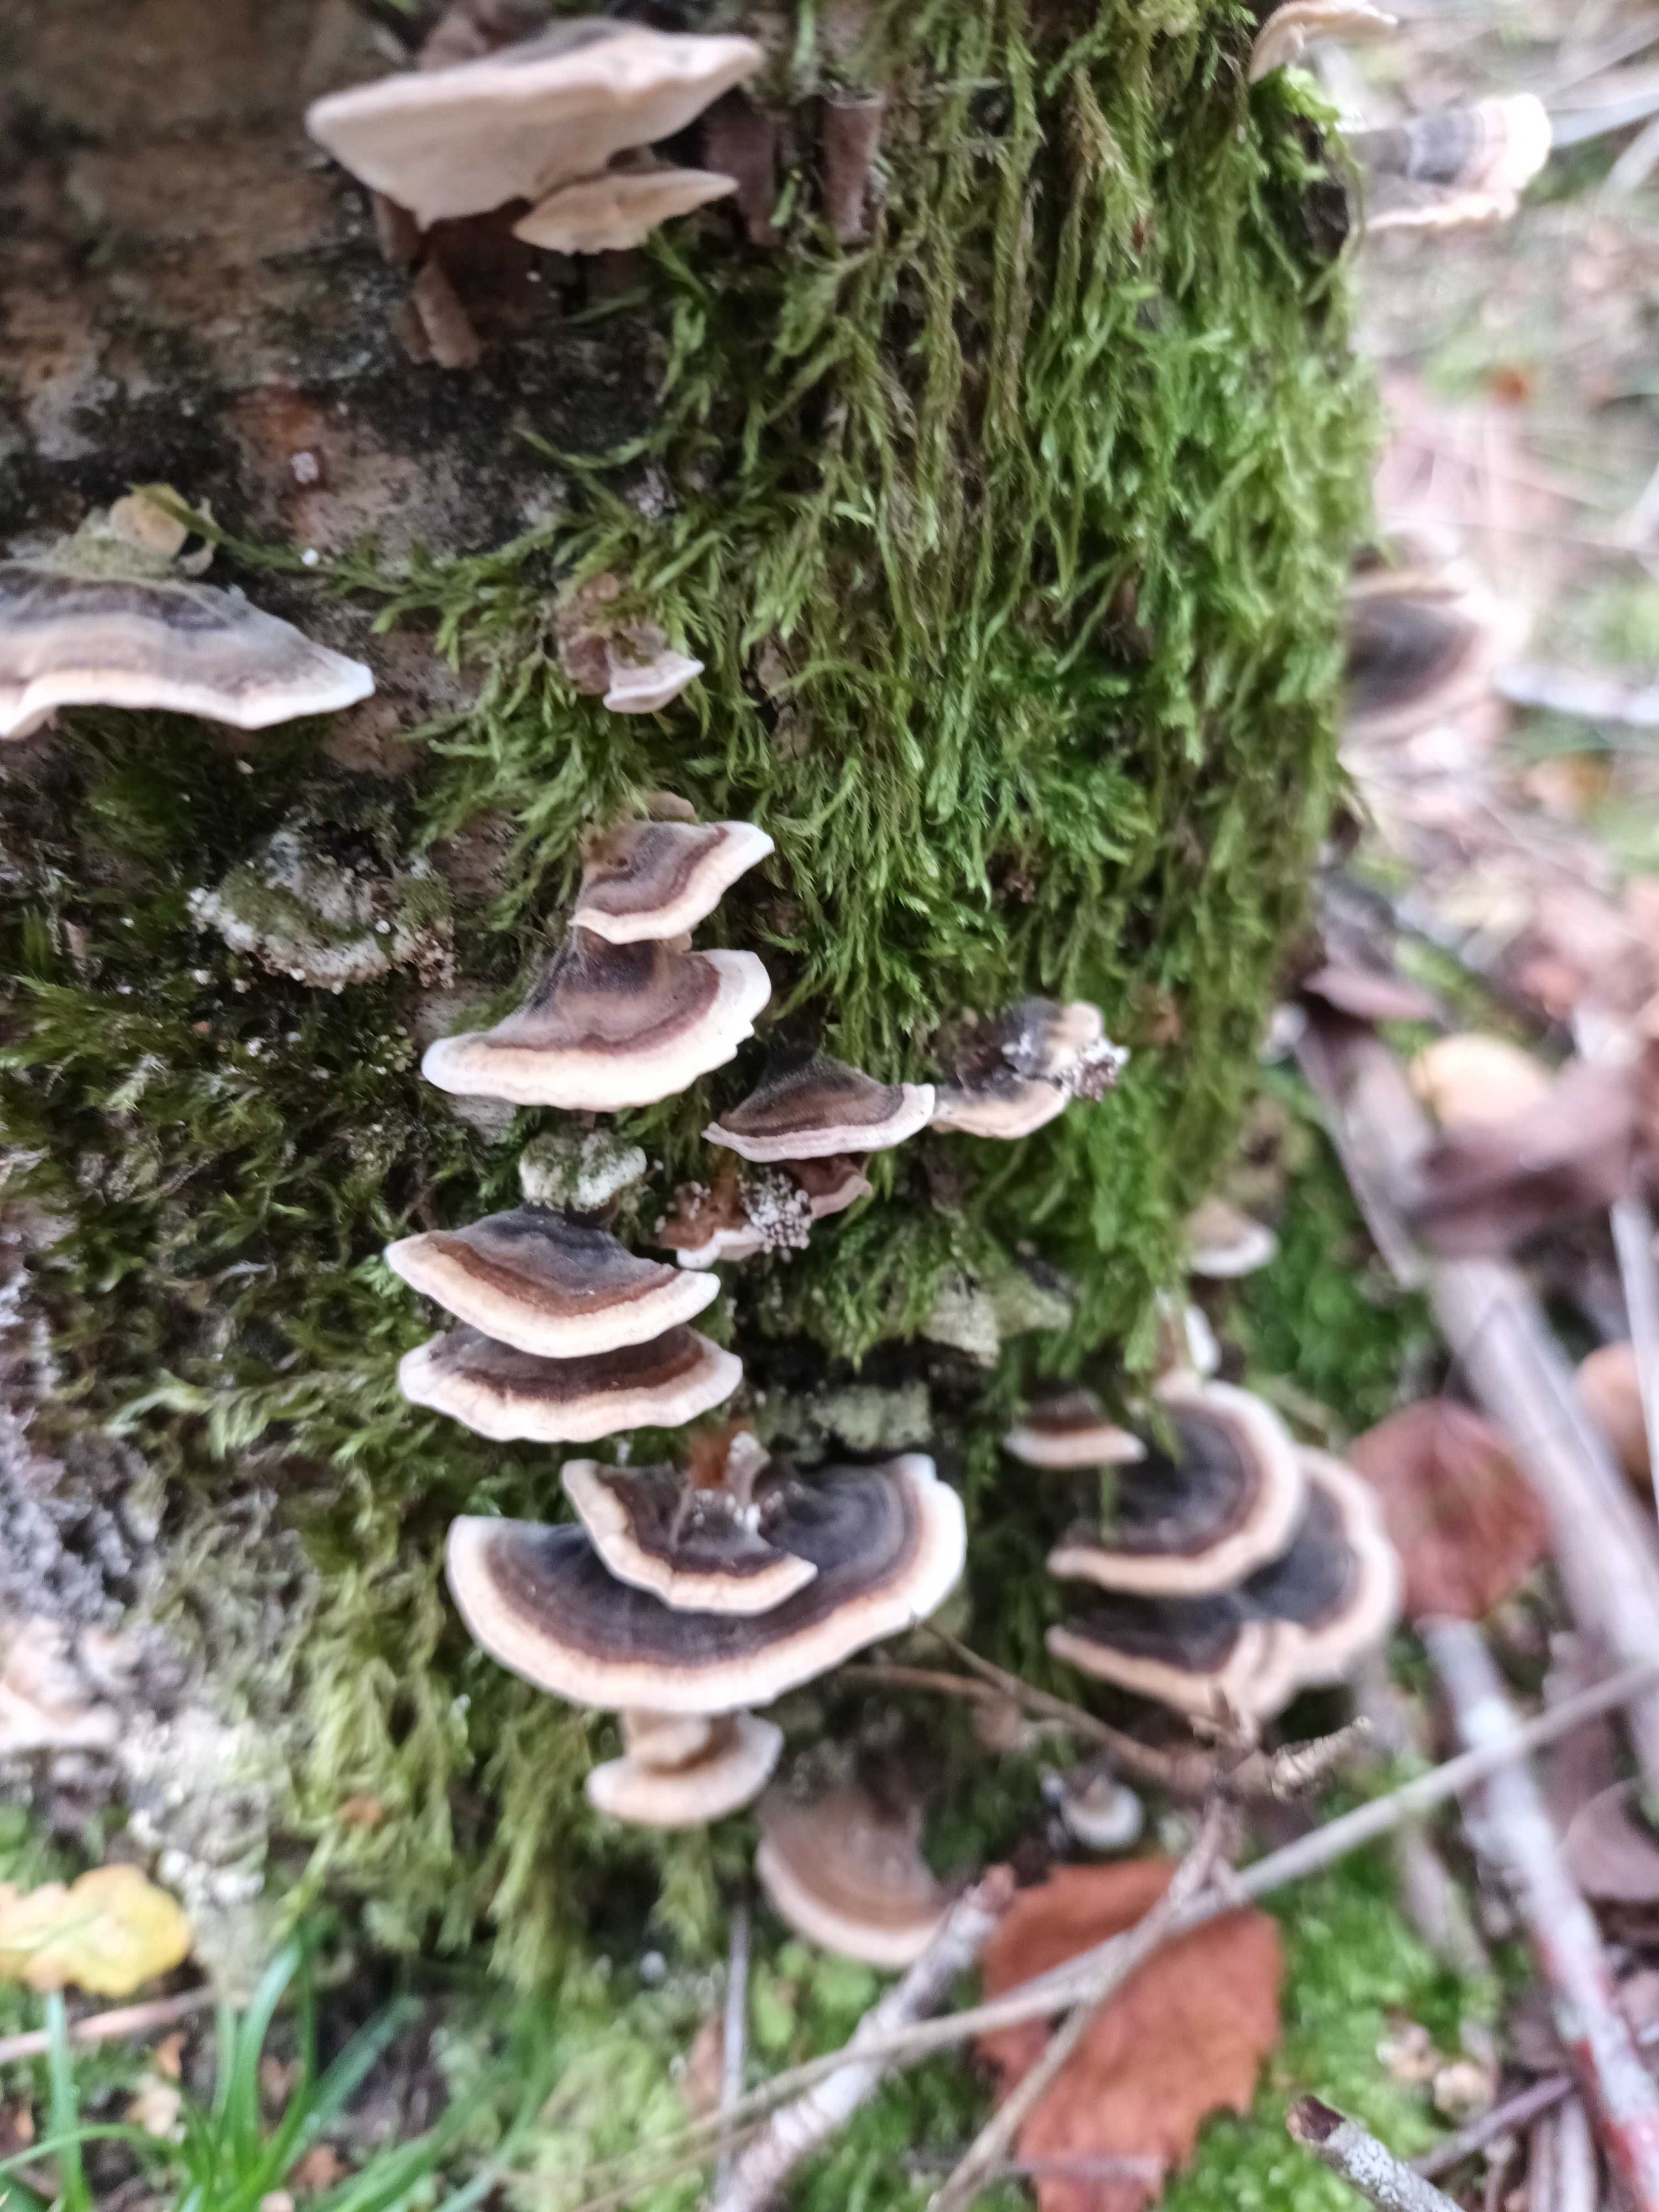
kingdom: Fungi
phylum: Basidiomycota
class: Agaricomycetes
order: Polyporales
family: Polyporaceae
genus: Trametes
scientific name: Trametes versicolor
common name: broget læderporesvamp
